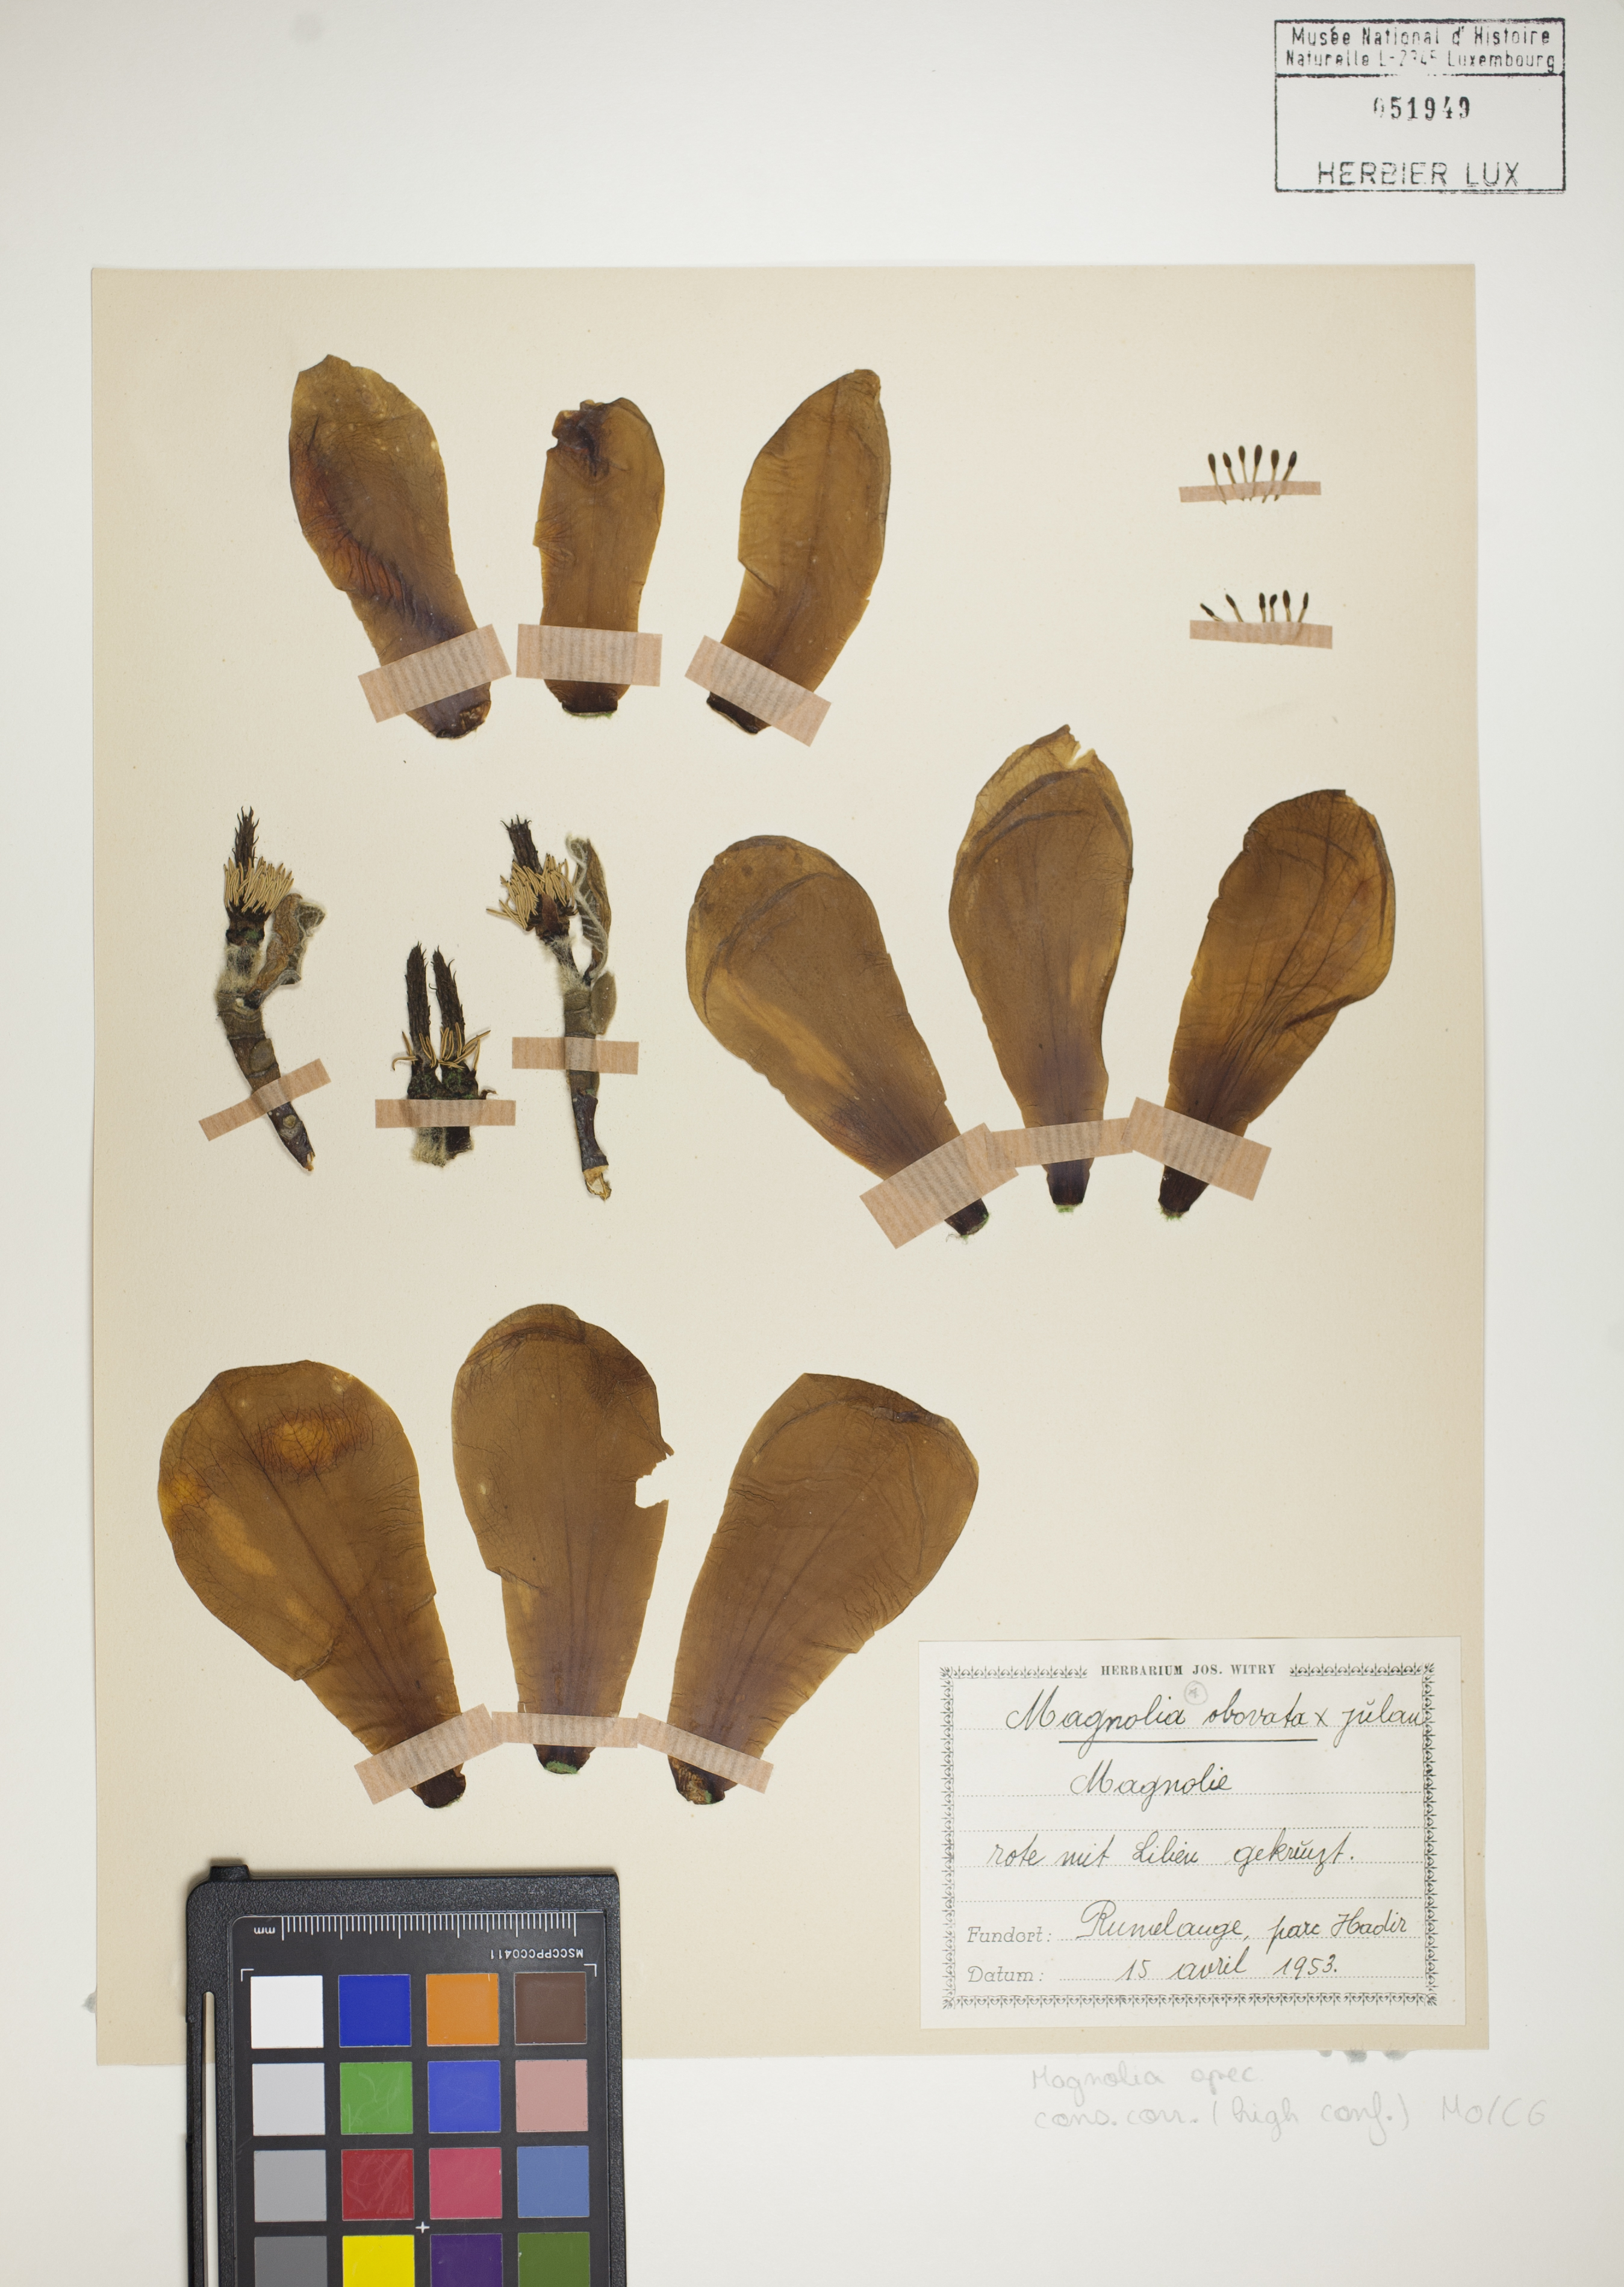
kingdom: Plantae
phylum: Tracheophyta
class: Magnoliopsida
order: Magnoliales
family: Magnoliaceae
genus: Magnolia
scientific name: Magnolia
